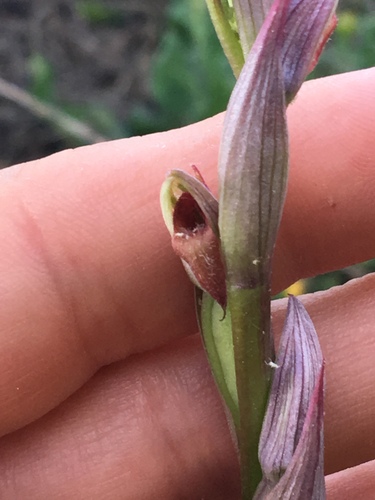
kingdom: Plantae
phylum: Tracheophyta
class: Liliopsida
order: Asparagales
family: Orchidaceae
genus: Serapias
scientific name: Serapias strictiflora
